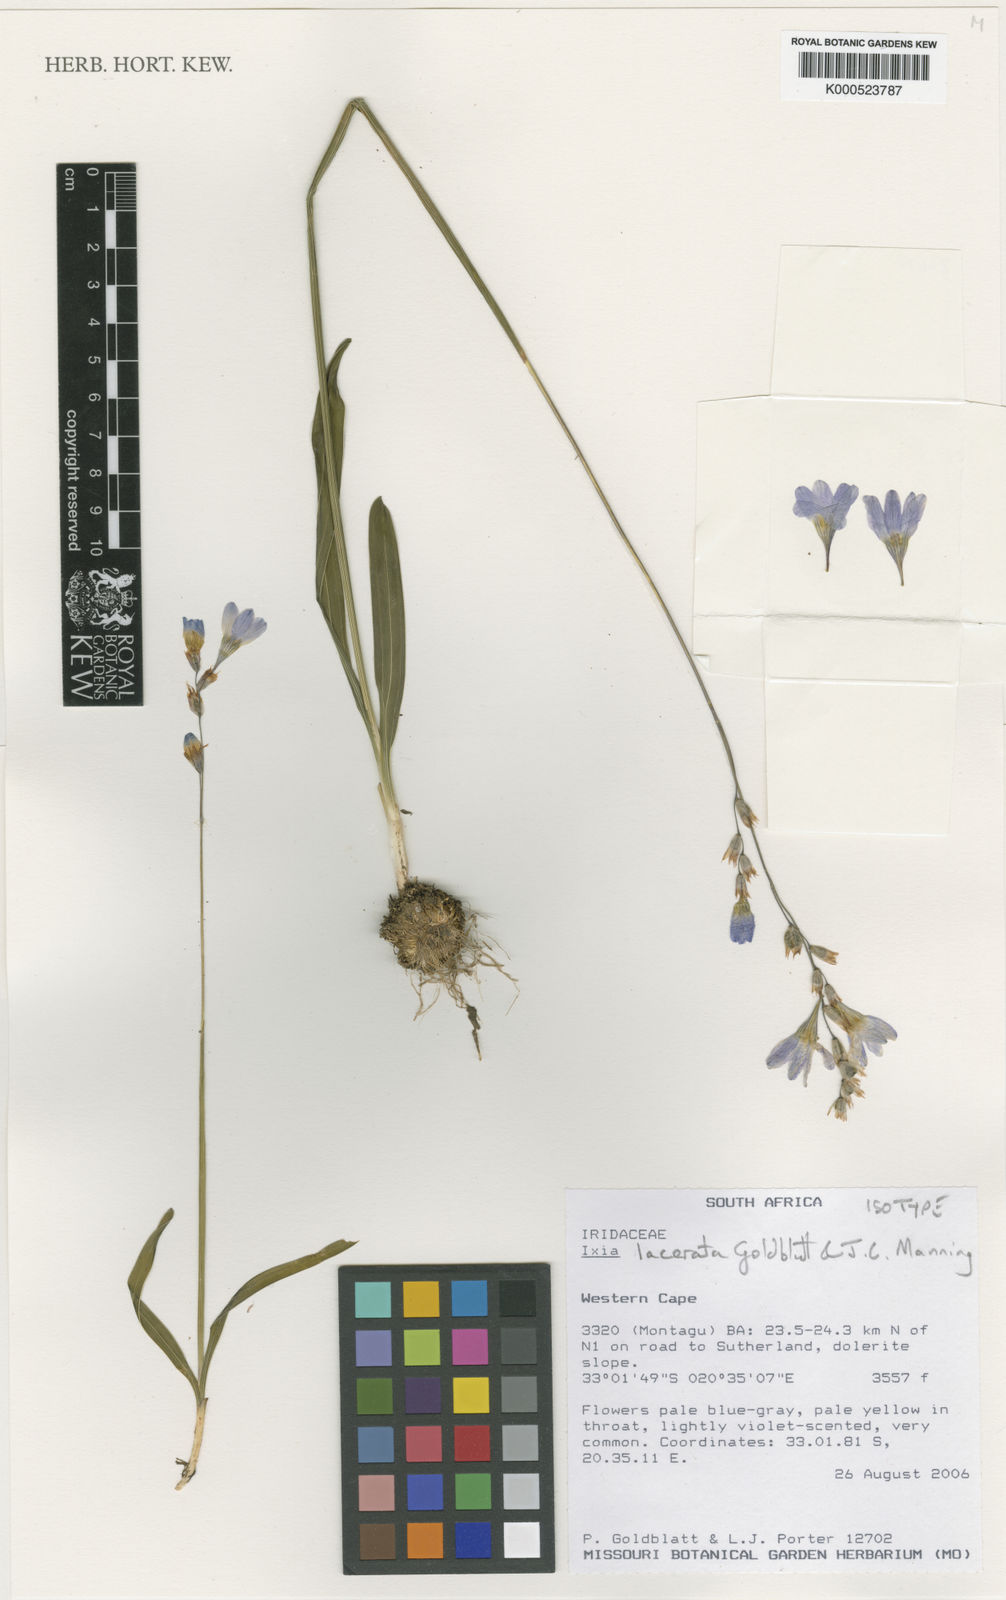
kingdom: Plantae
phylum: Tracheophyta
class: Liliopsida
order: Asparagales
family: Iridaceae
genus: Ixia
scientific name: Ixia lacerata
